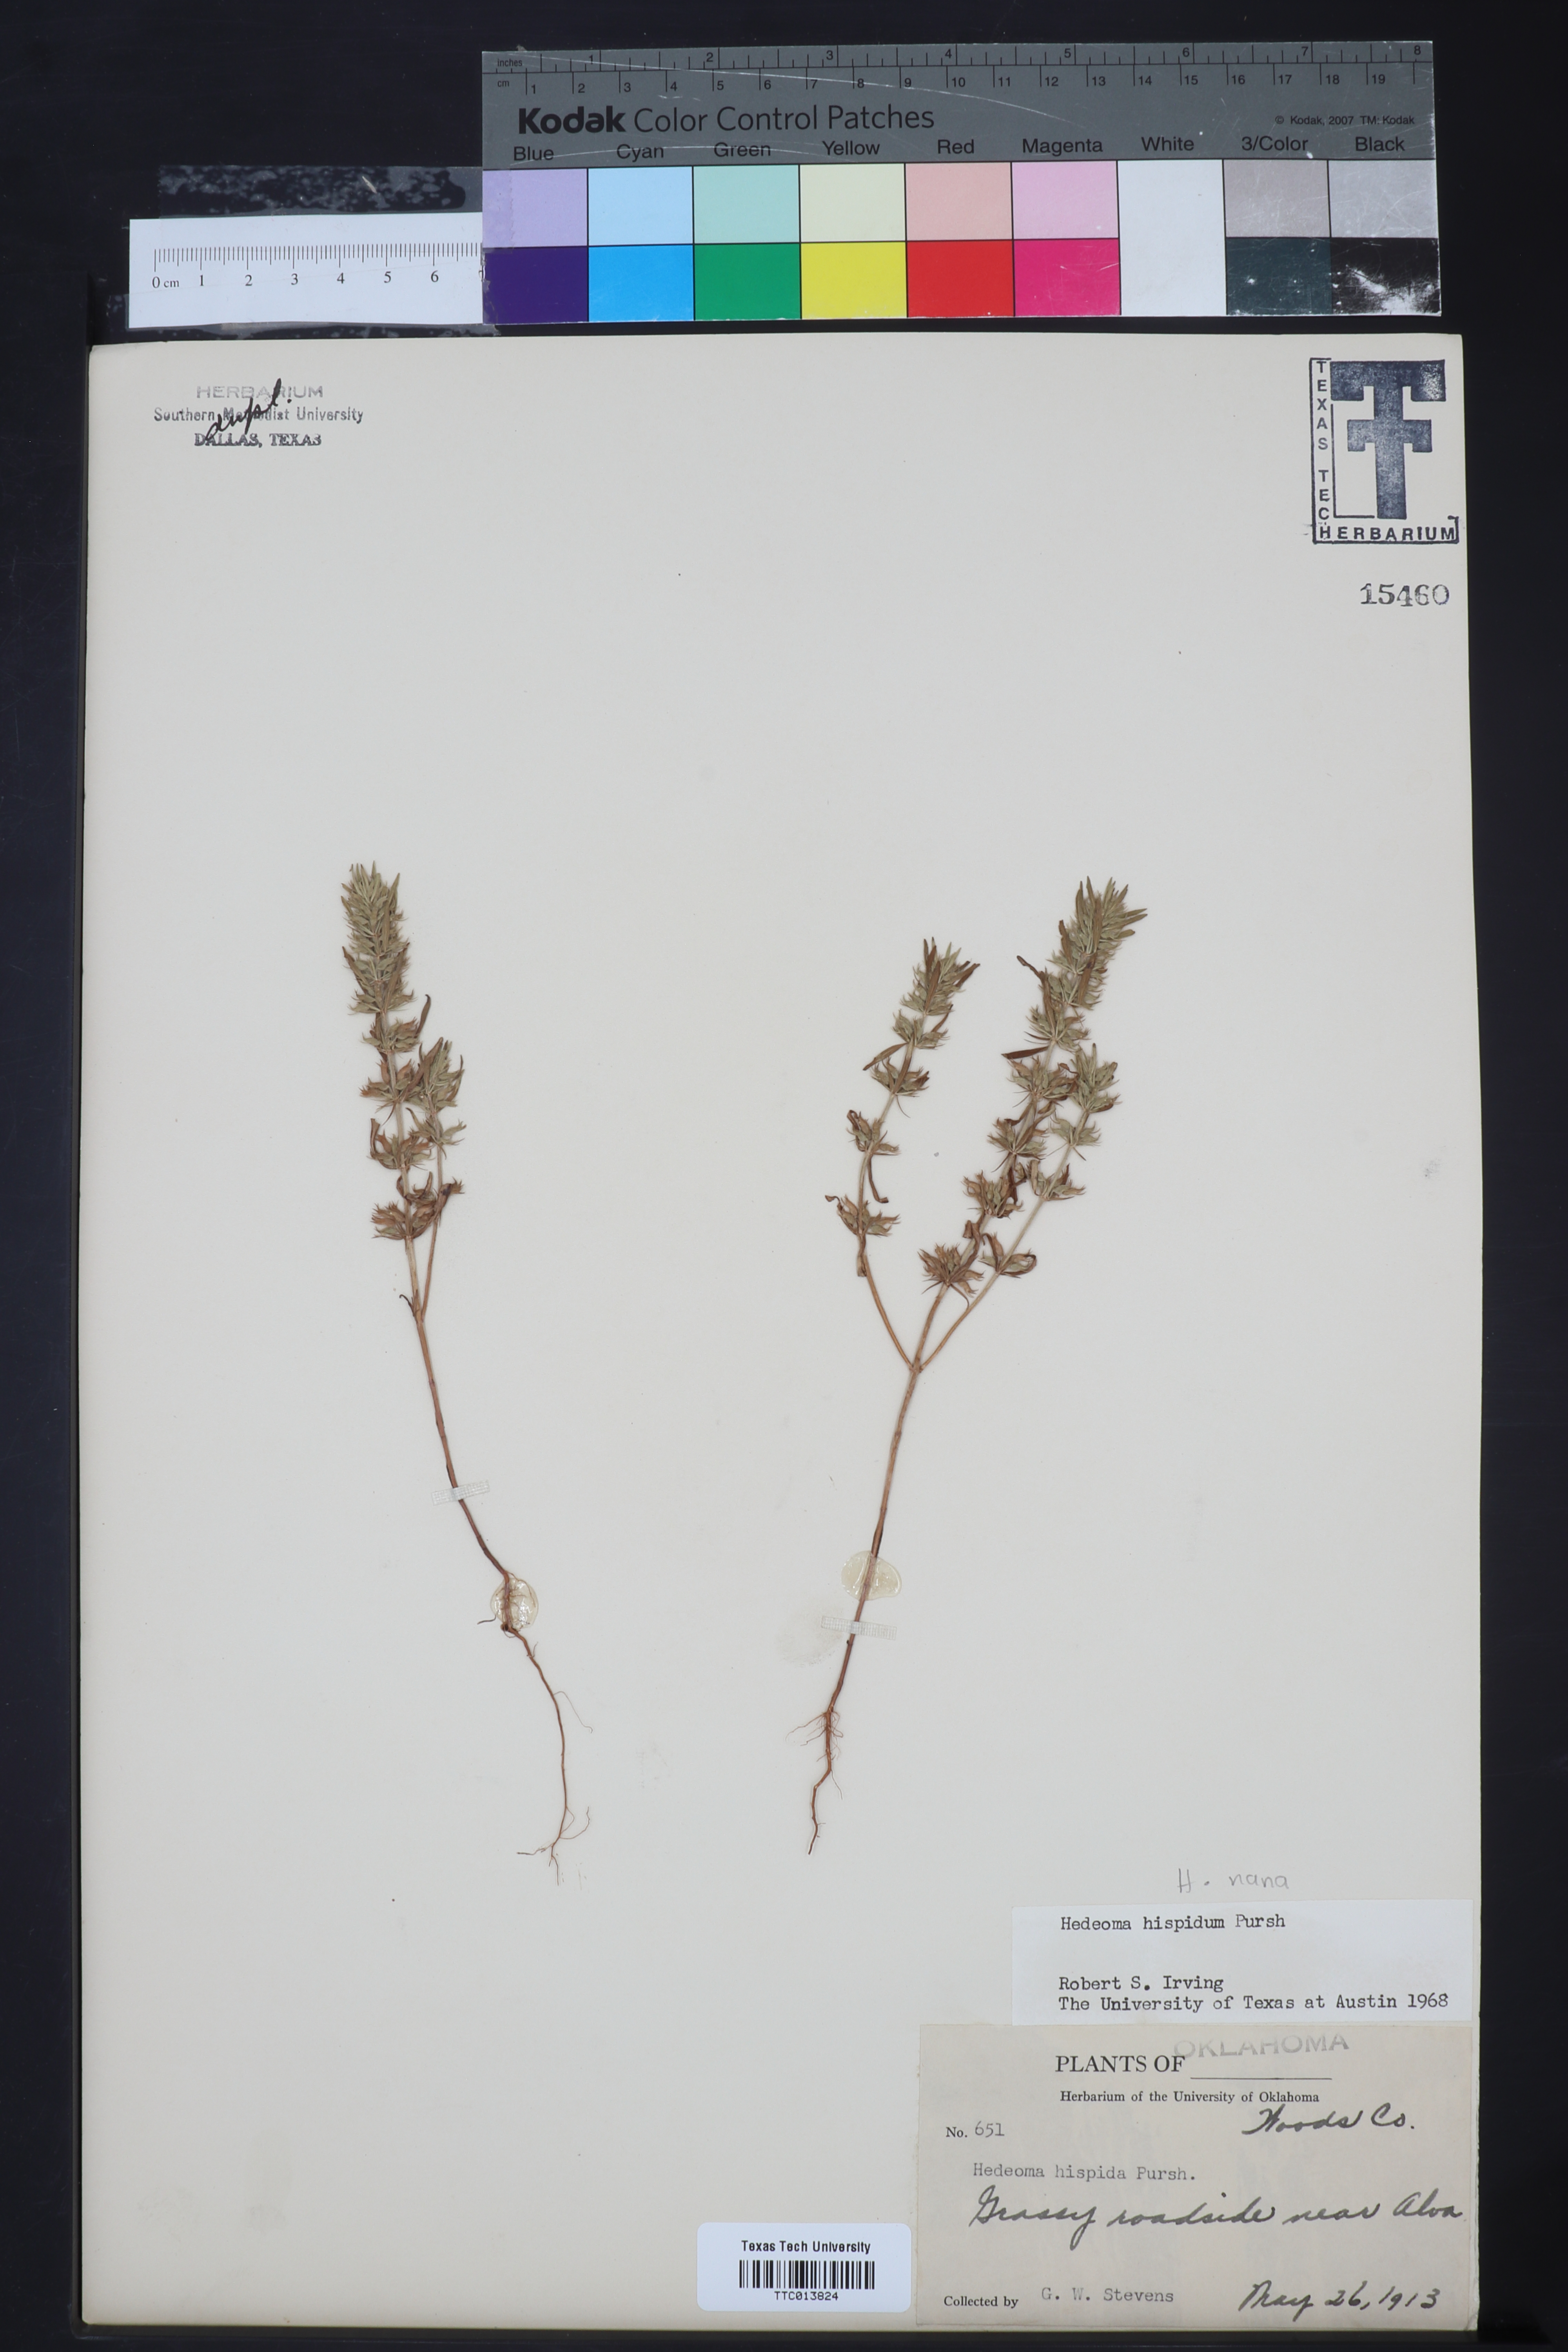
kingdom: Plantae
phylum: Tracheophyta
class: Magnoliopsida
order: Lamiales
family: Lamiaceae
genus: Hedeoma
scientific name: Hedeoma hispida
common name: Mock pennyroyal
